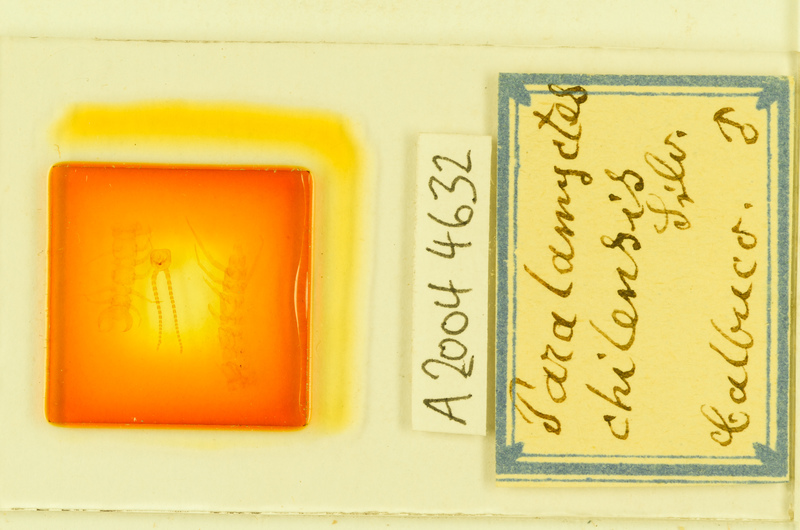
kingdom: Animalia
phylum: Arthropoda
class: Chilopoda
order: Lithobiomorpha
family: Henicopidae
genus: Paralamyctes
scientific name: Paralamyctes chilensis
